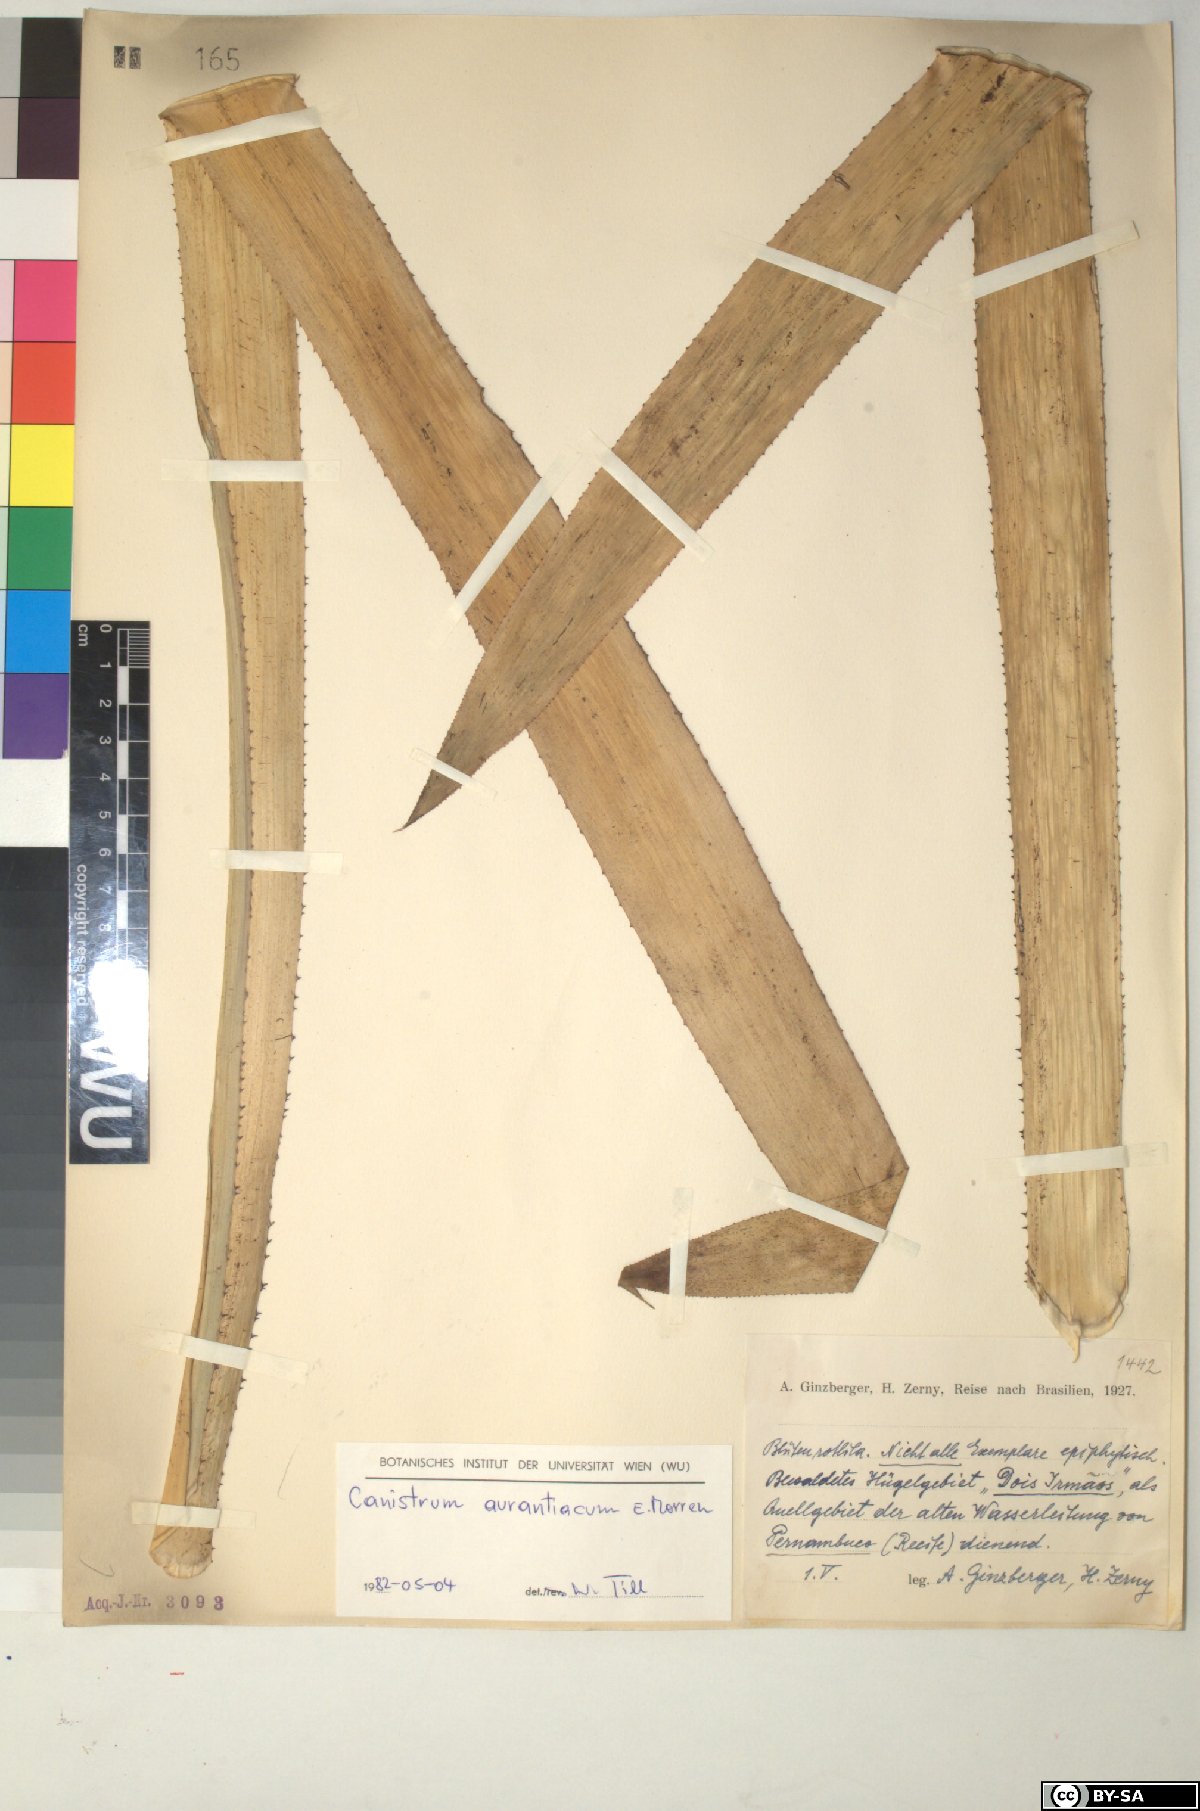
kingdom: Plantae
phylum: Tracheophyta
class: Liliopsida
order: Poales
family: Bromeliaceae
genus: Canistrum
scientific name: Canistrum aurantiacum
